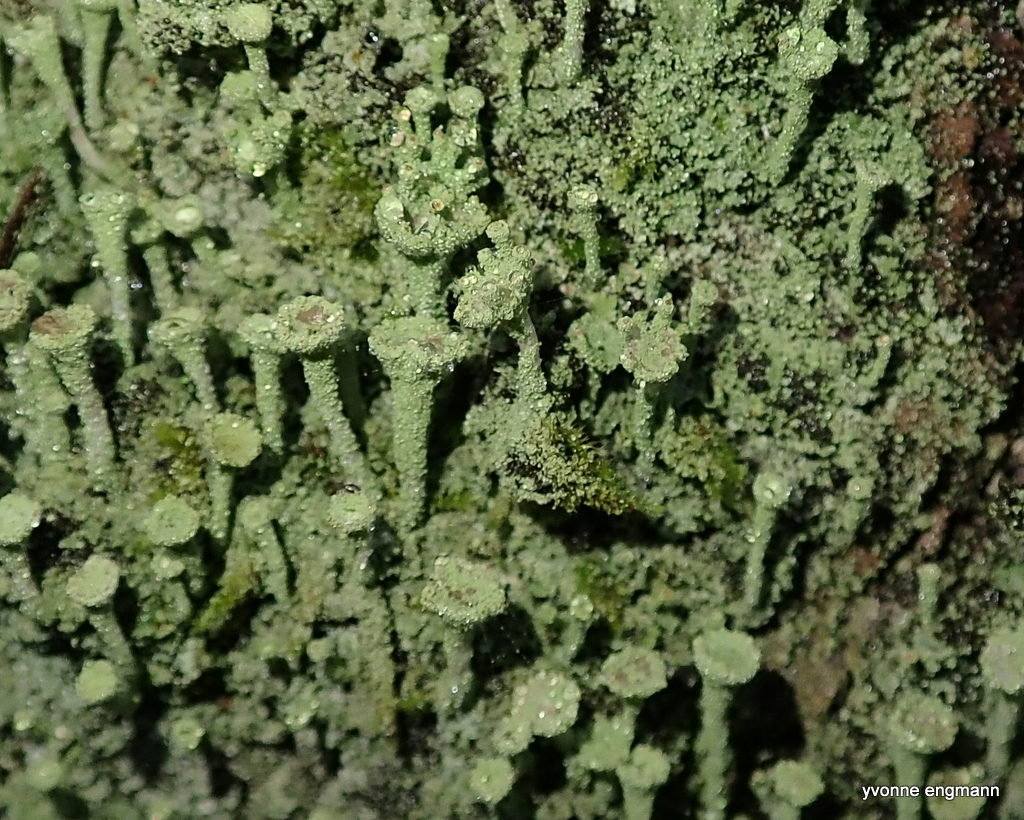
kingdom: Fungi
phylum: Ascomycota
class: Lecanoromycetes
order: Lecanorales
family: Cladoniaceae
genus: Cladonia
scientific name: Cladonia
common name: brungrøn bægerlav
